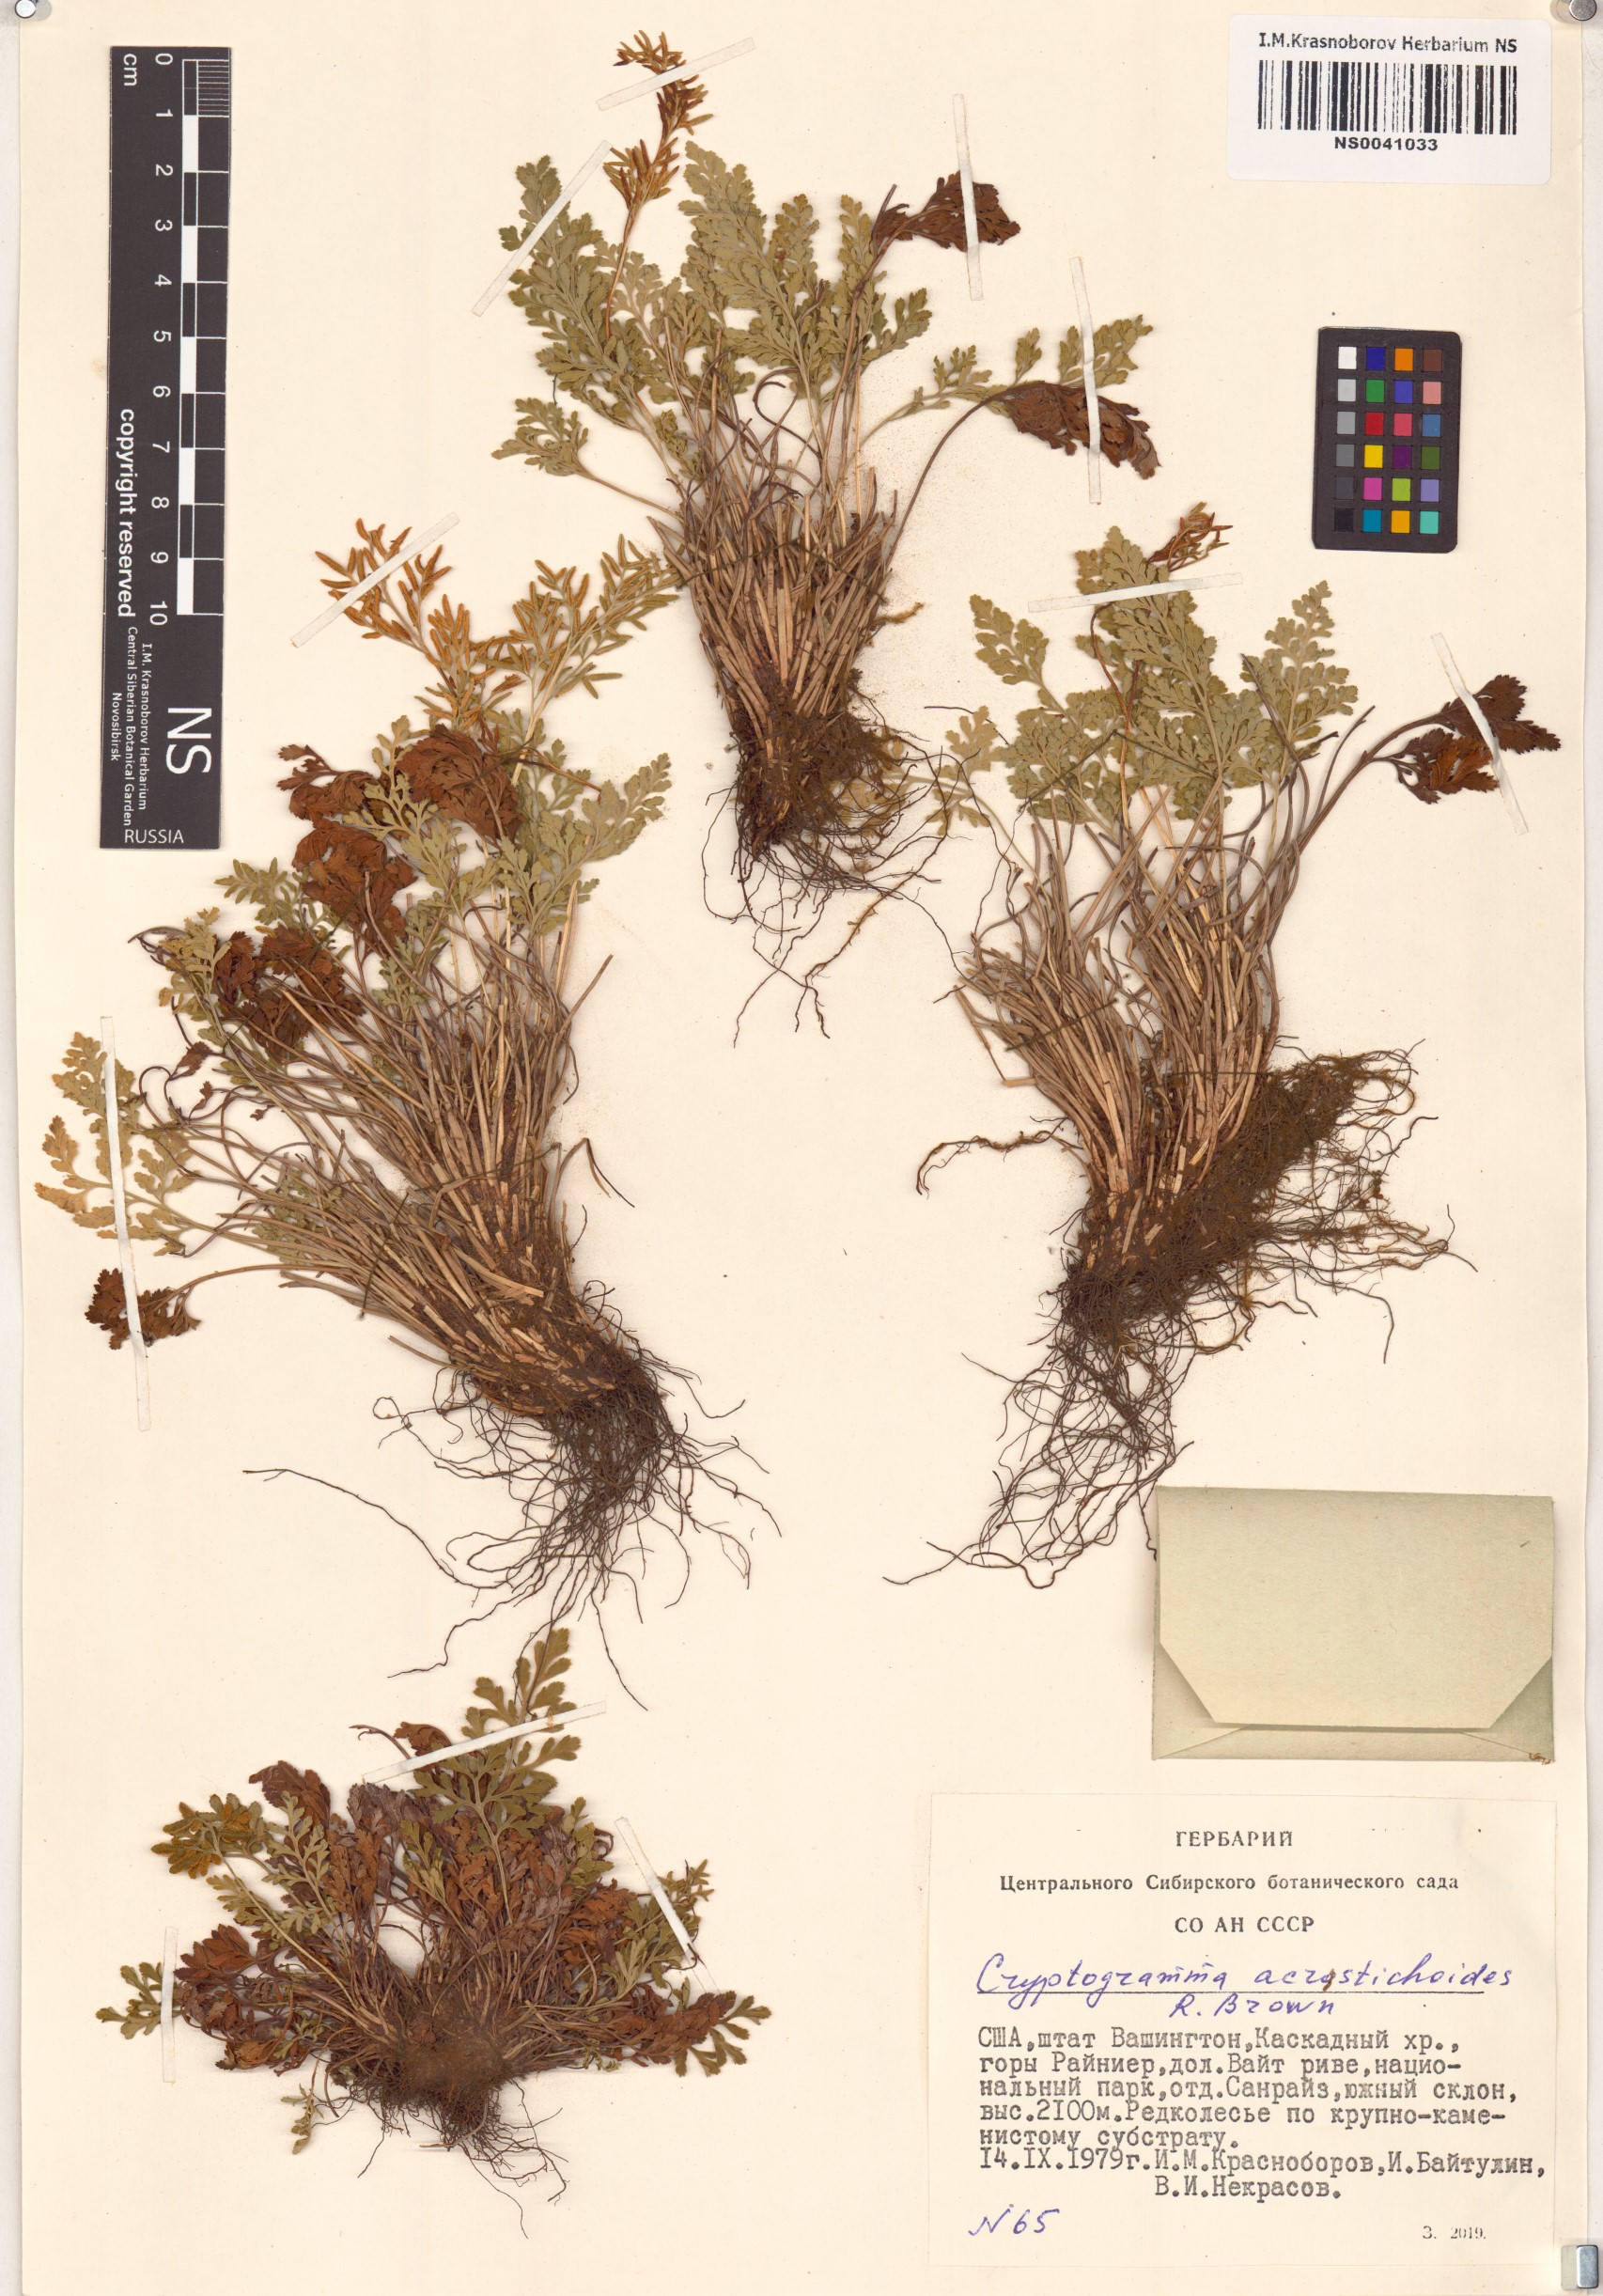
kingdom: Plantae
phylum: Tracheophyta
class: Polypodiopsida
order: Polypodiales
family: Pteridaceae
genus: Cryptogramma
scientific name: Cryptogramma acrostichoides
